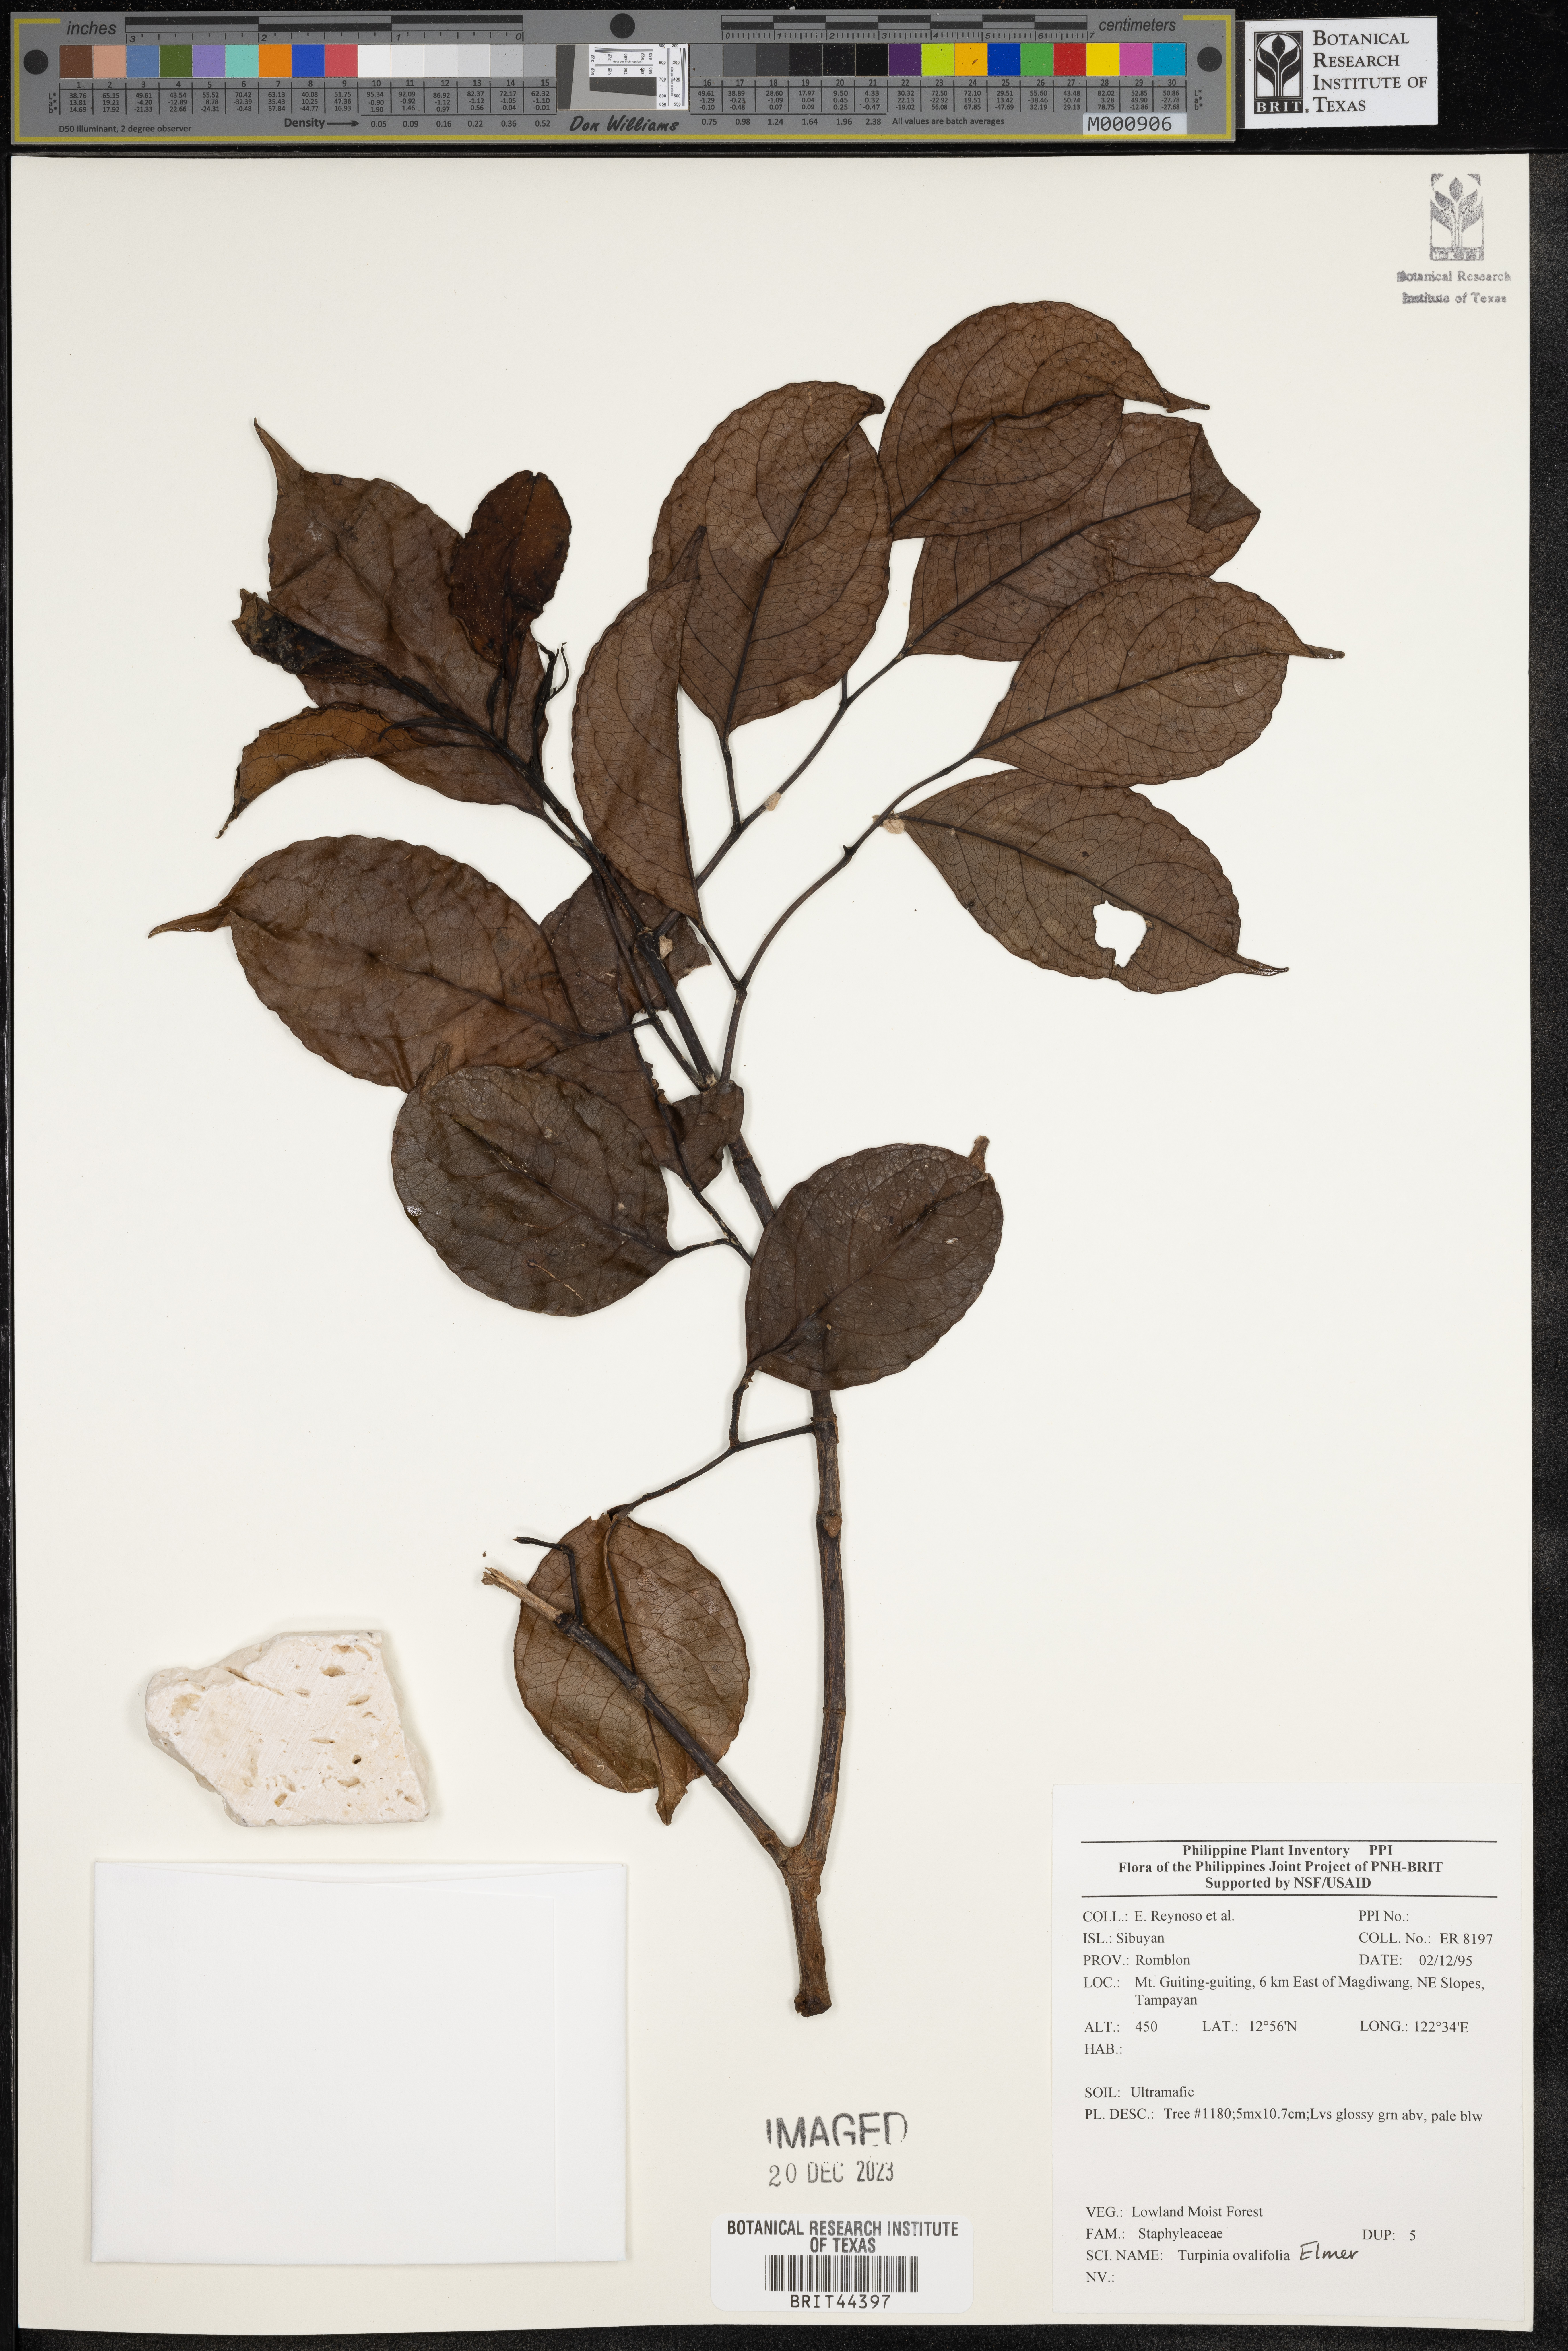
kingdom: Plantae
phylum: Tracheophyta
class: Magnoliopsida
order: Crossosomatales
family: Staphyleaceae
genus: Turpinia
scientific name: Turpinia
